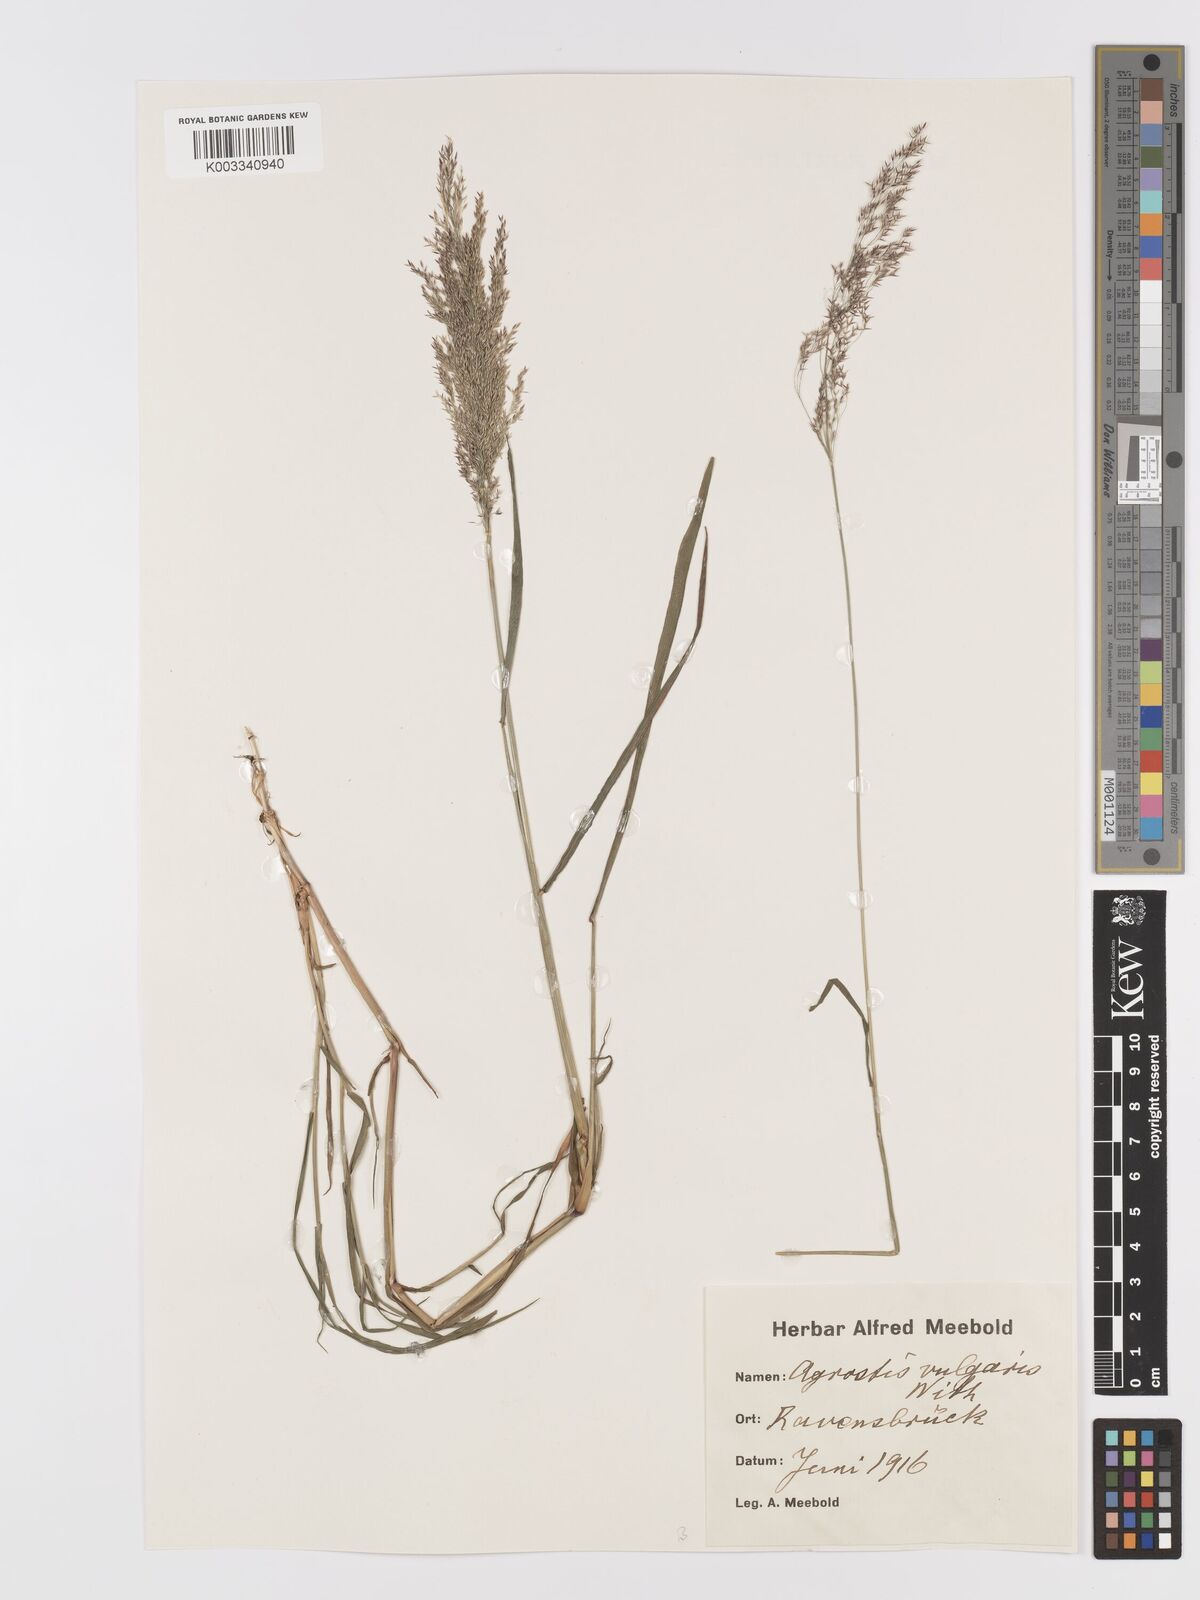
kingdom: Plantae
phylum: Tracheophyta
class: Liliopsida
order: Poales
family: Poaceae
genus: Agrostis
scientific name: Agrostis capillaris
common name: Colonial bentgrass
